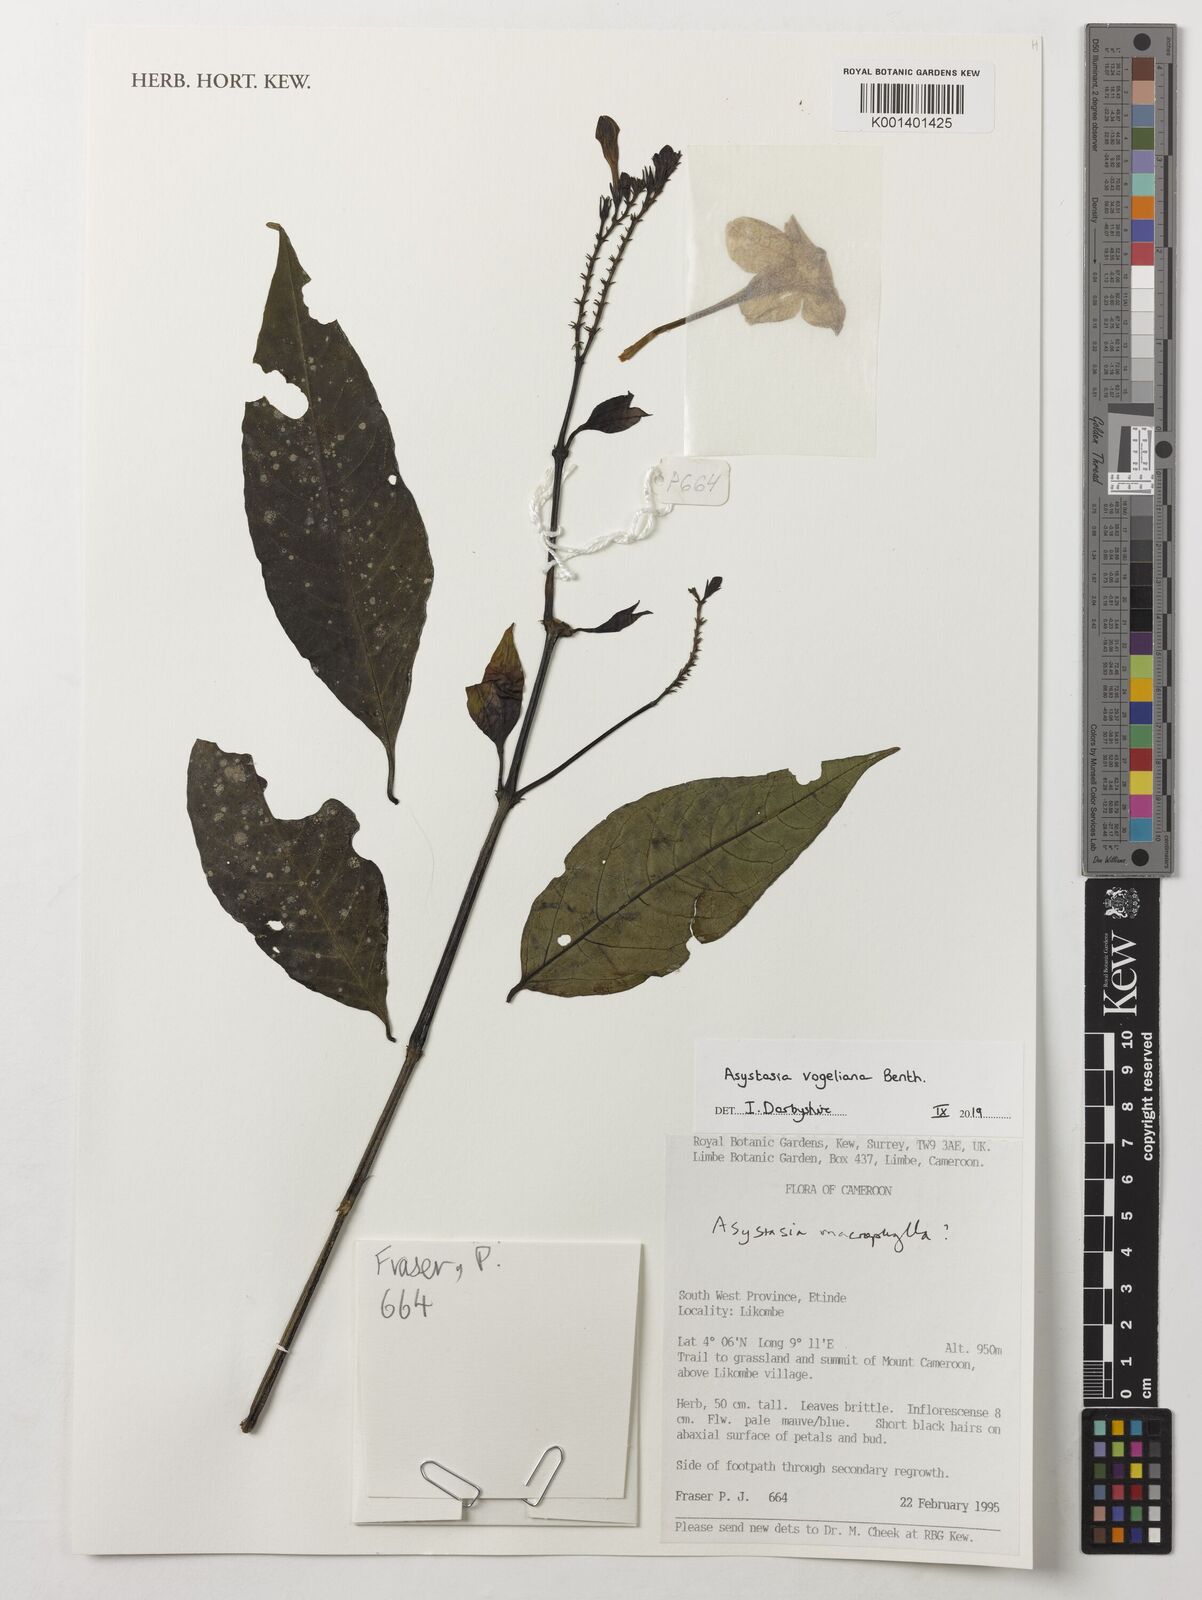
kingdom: Plantae
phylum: Tracheophyta
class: Magnoliopsida
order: Lamiales
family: Acanthaceae
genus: Asystasia
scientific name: Asystasia vogeliana
